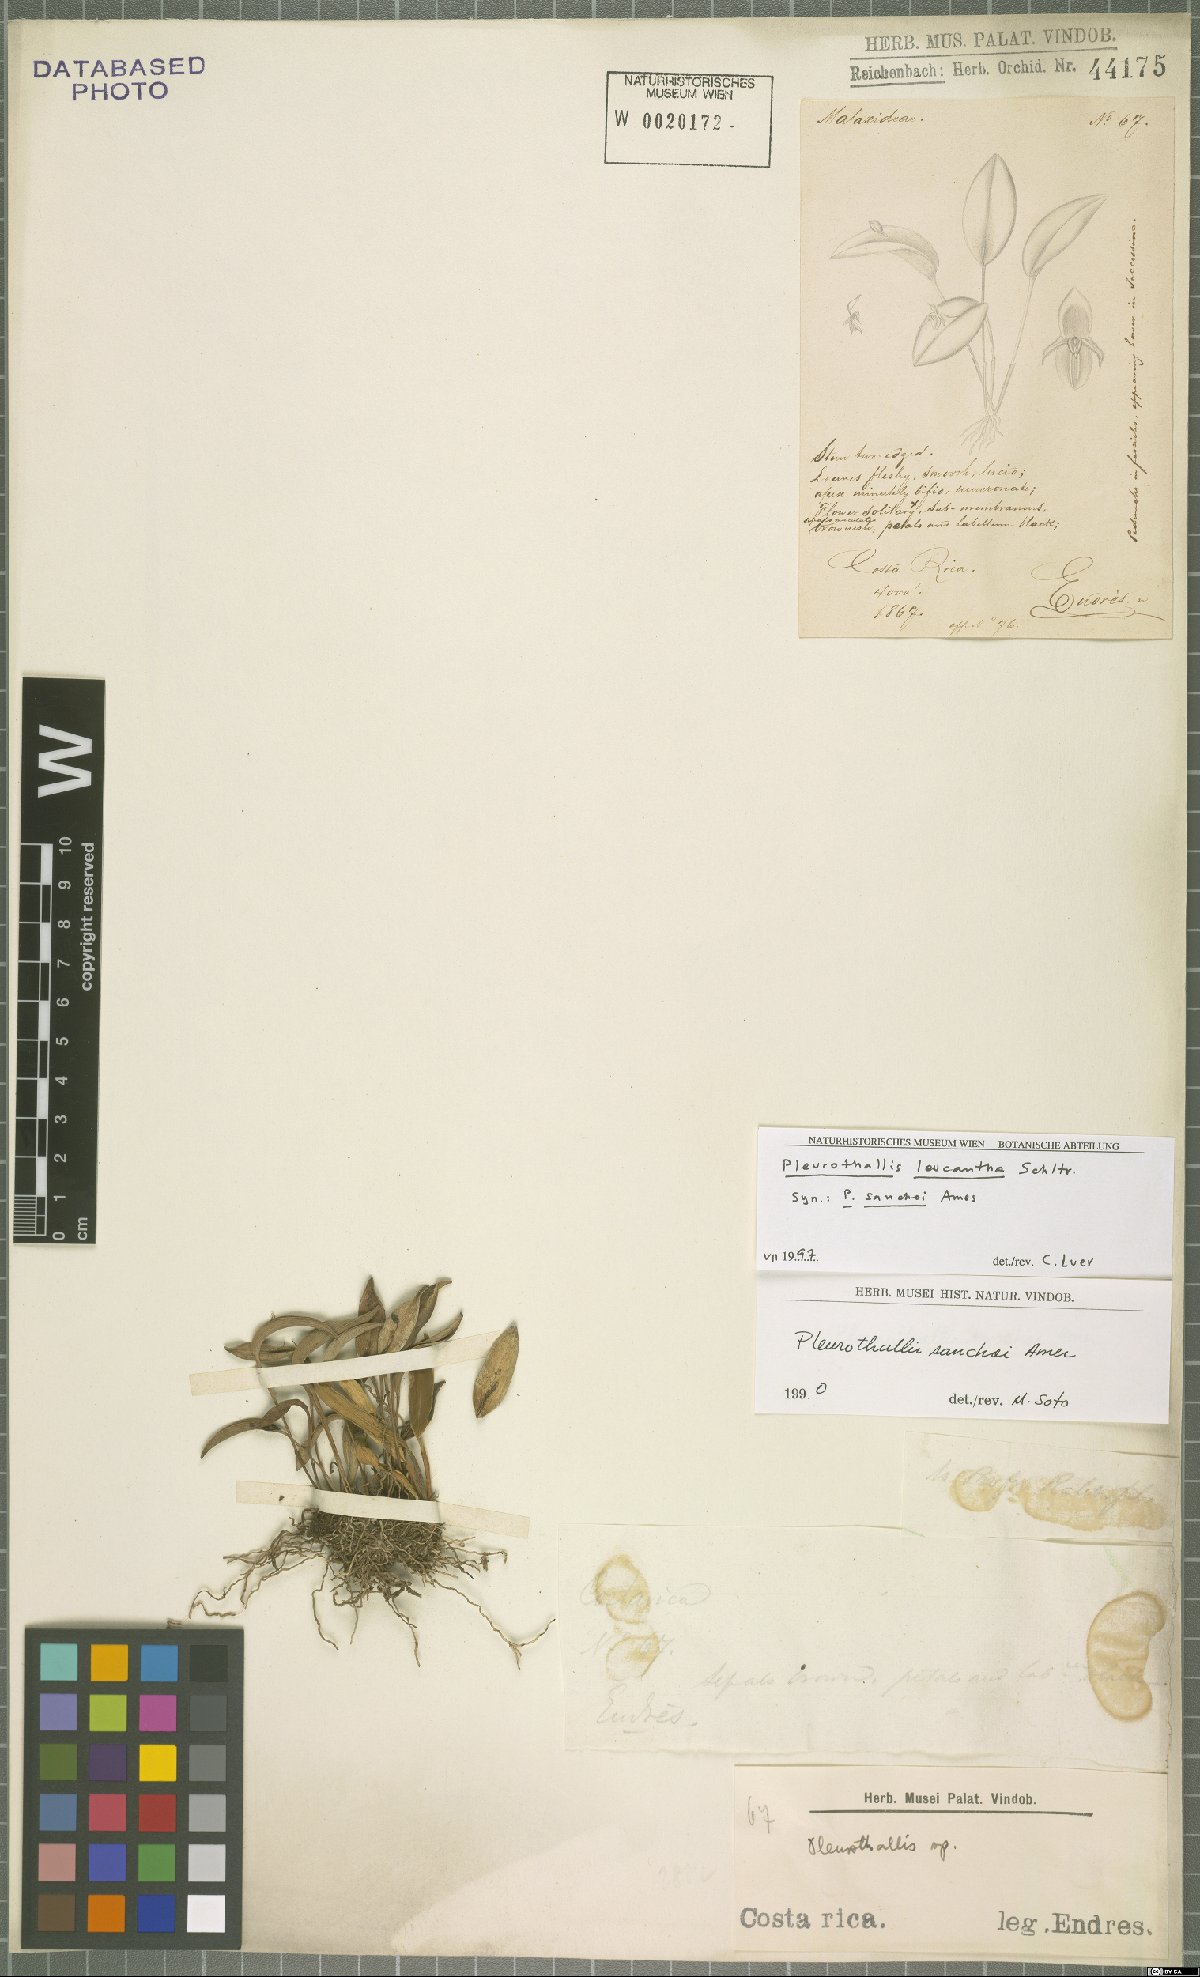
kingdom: Plantae
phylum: Tracheophyta
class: Liliopsida
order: Asparagales
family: Orchidaceae
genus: Pleurothallis
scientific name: Pleurothallis leucantha
